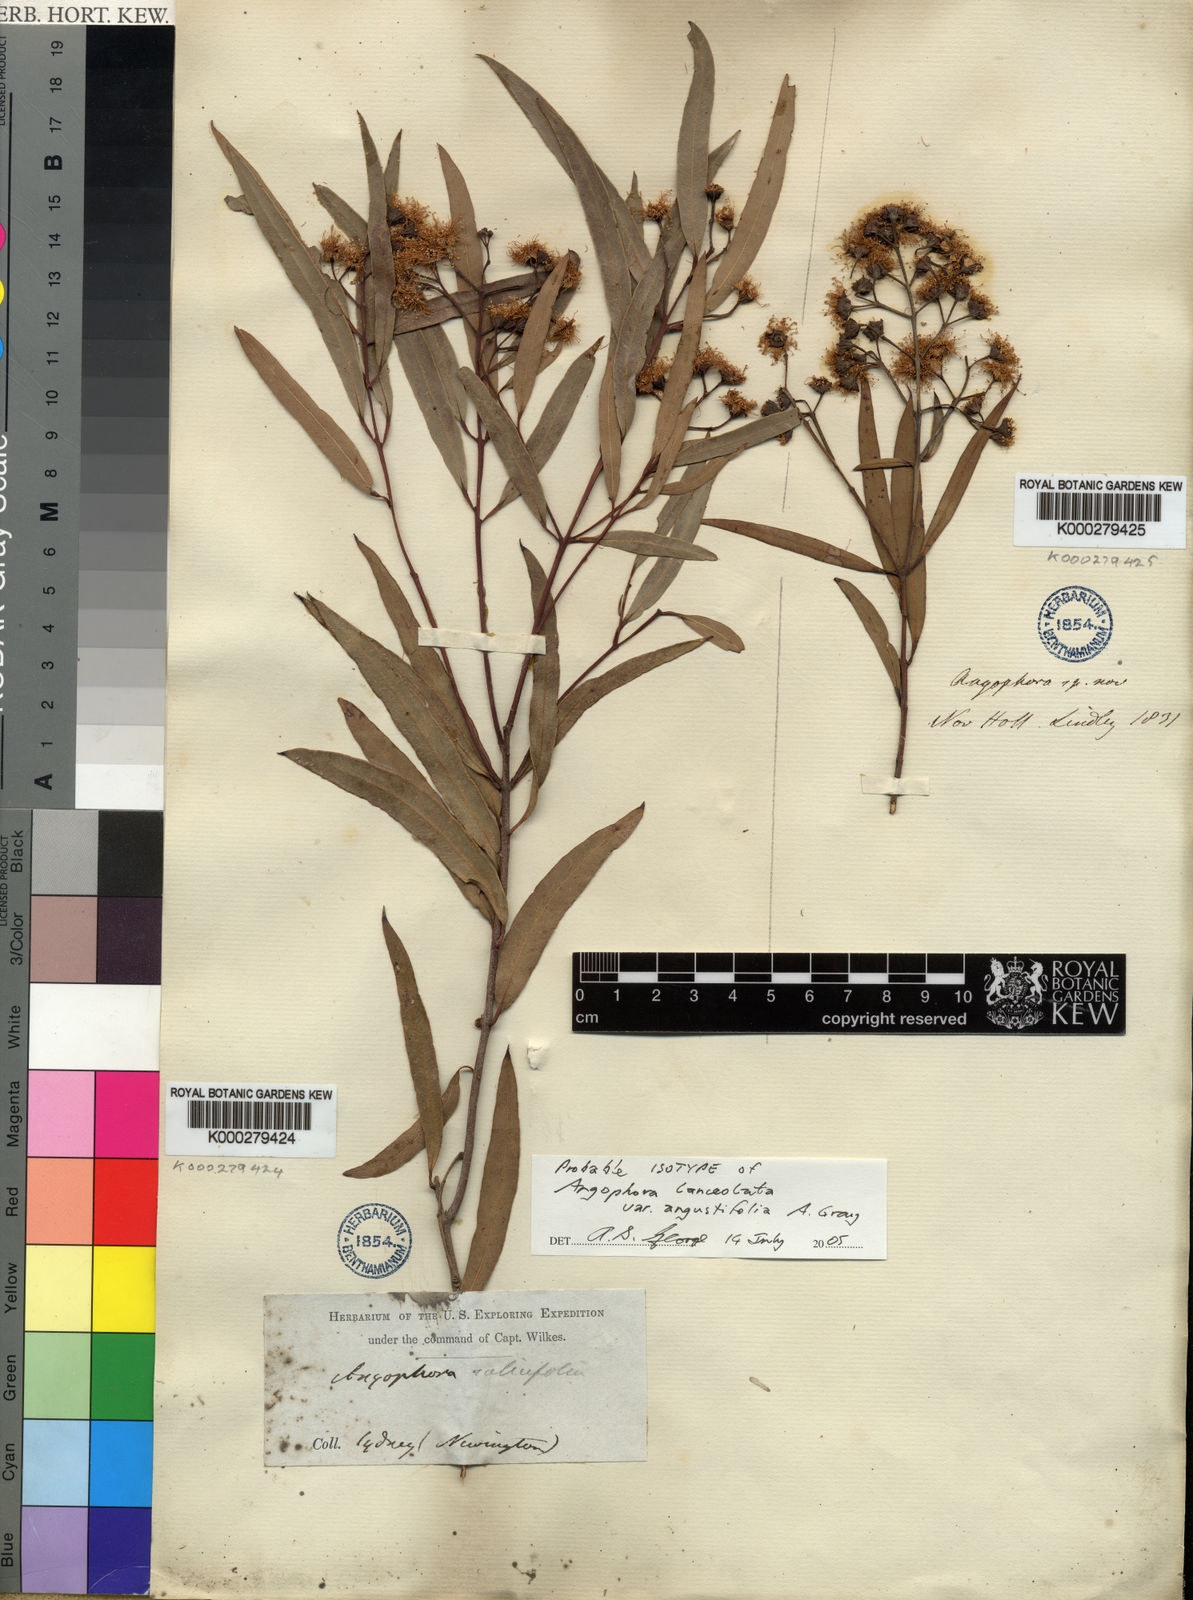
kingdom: Plantae
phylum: Tracheophyta
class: Magnoliopsida
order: Myrtales
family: Myrtaceae
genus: Angophora
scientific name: Angophora floribunda
